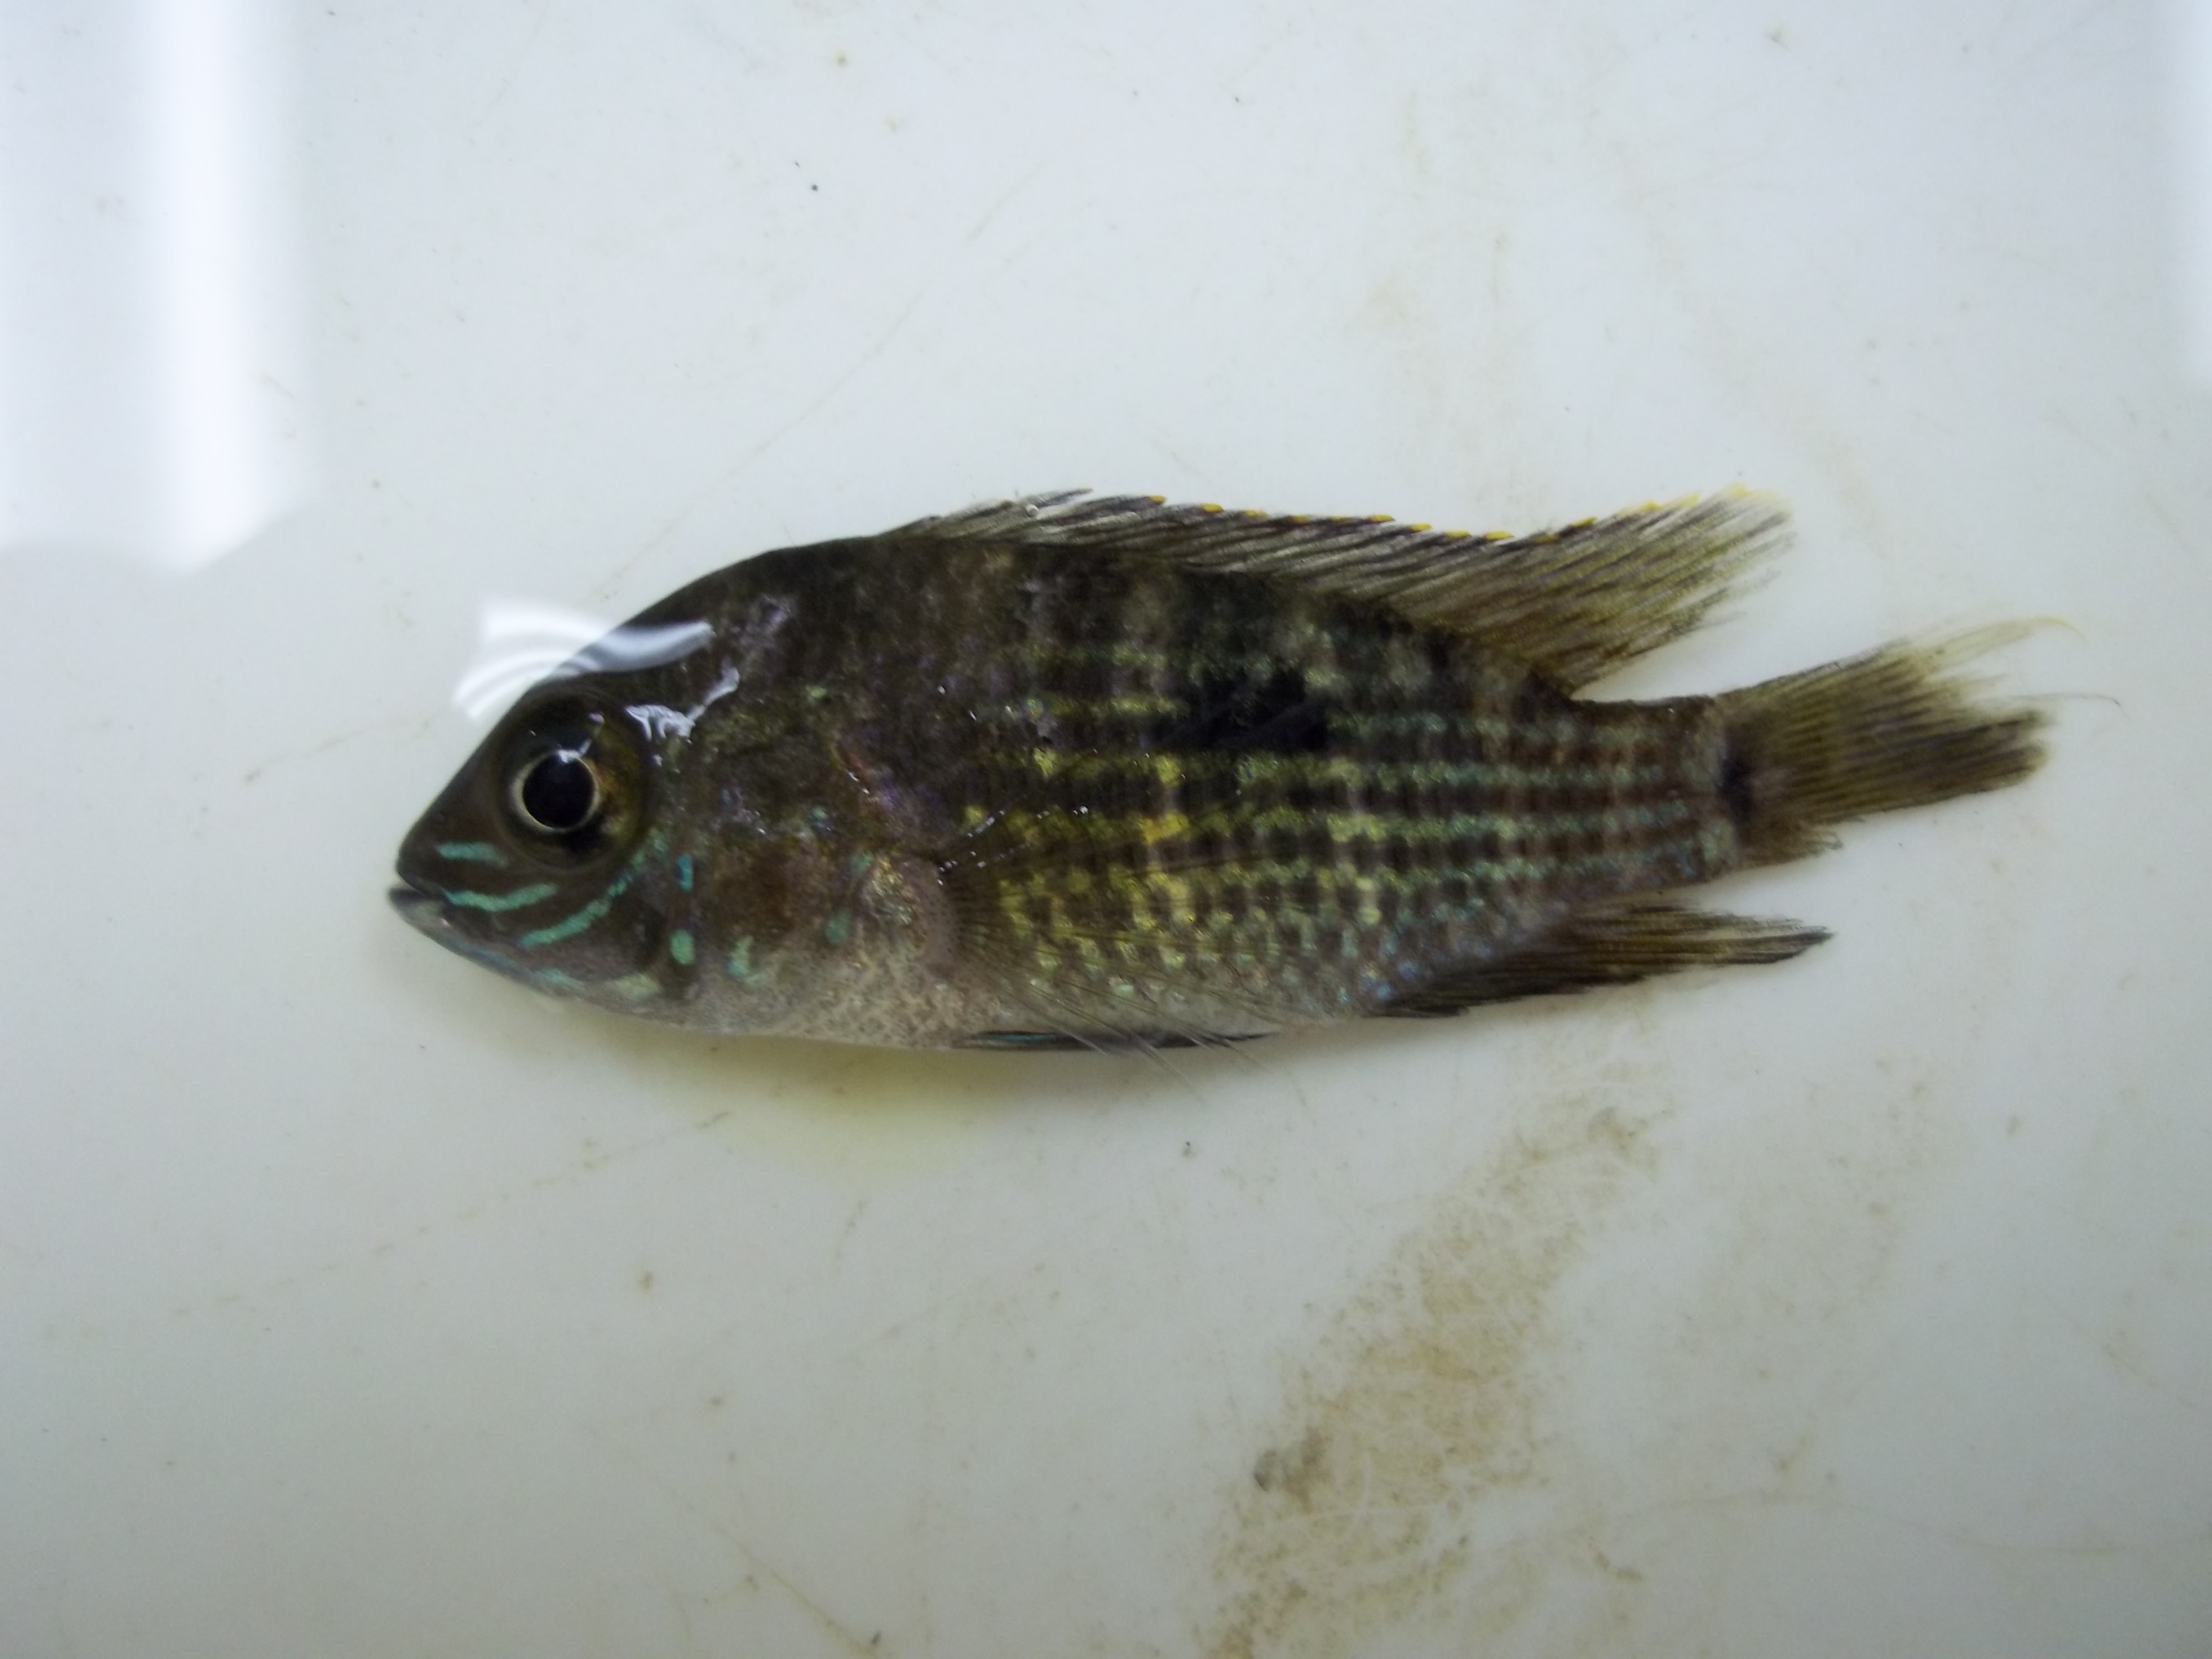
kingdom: Animalia
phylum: Chordata
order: Perciformes
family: Cichlidae
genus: Rocio
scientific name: Rocio octofasciata
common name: Jack dempsey
